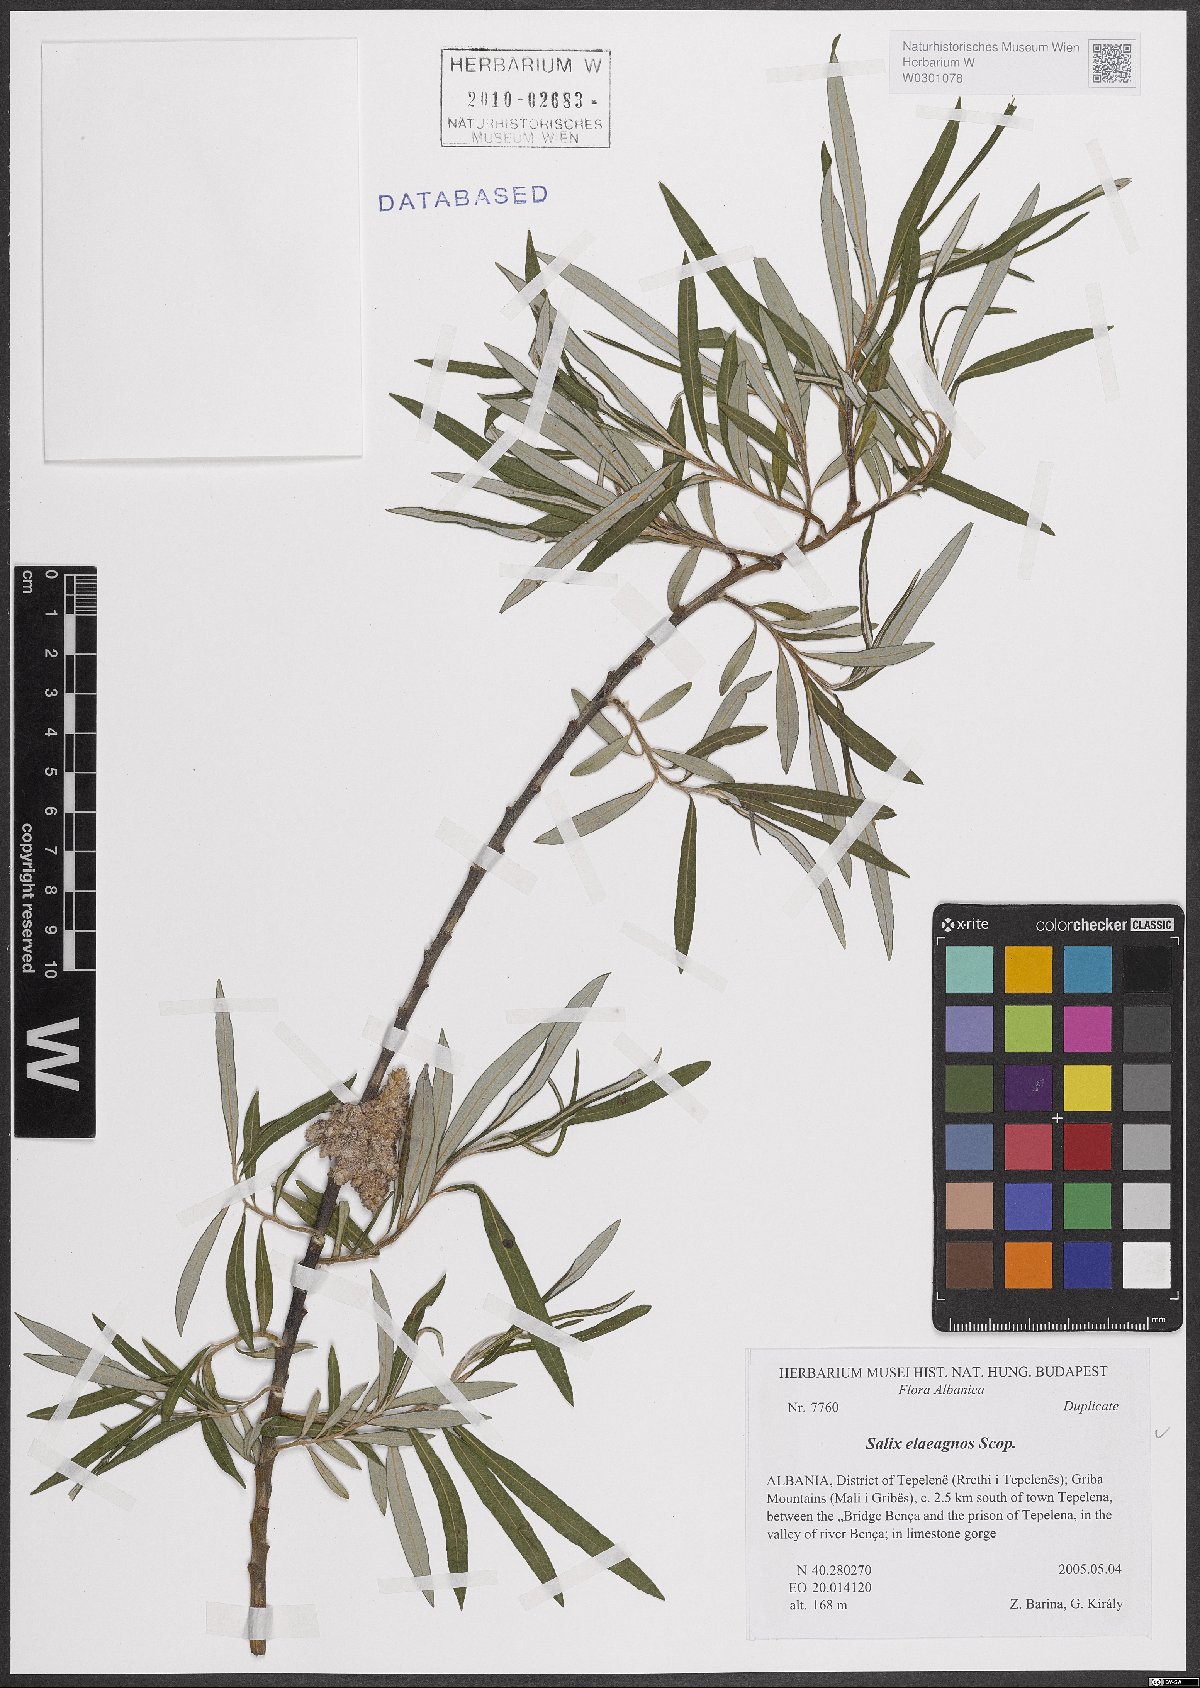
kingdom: Plantae
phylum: Tracheophyta
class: Magnoliopsida
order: Malpighiales
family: Salicaceae
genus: Salix
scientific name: Salix eleagnos
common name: Elaeagnus willow
